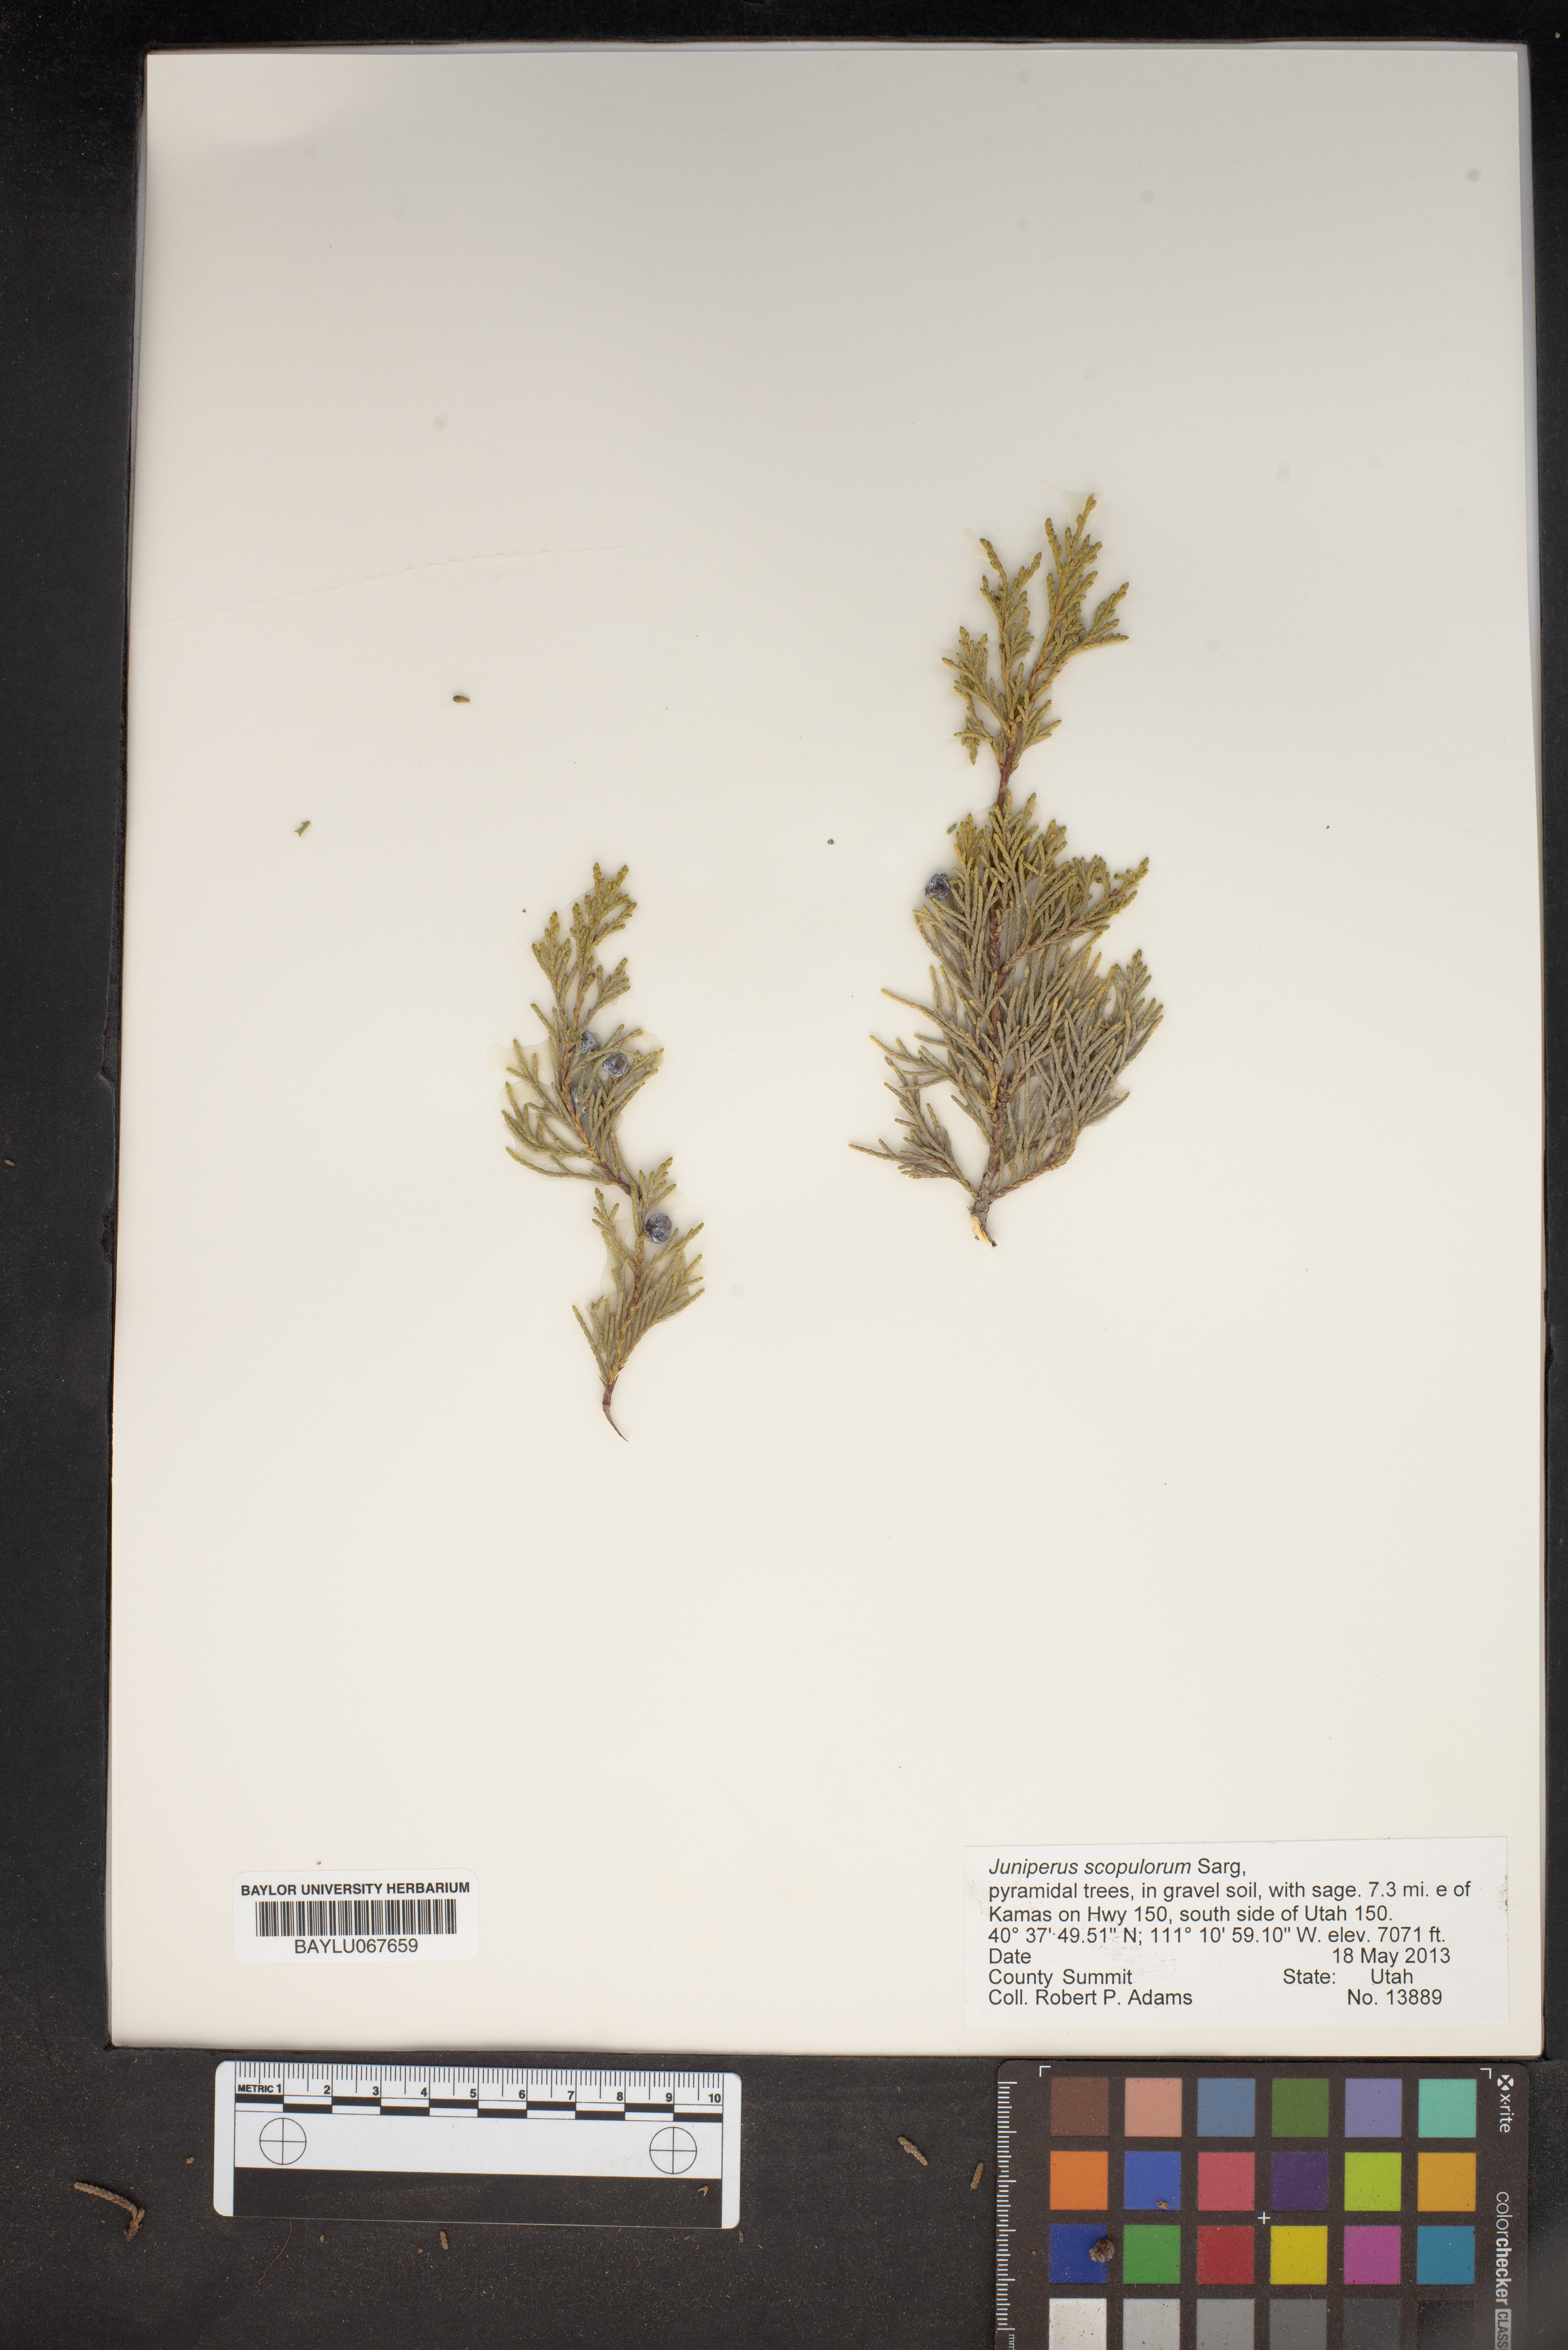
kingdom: Plantae
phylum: Tracheophyta
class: Pinopsida
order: Pinales
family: Cupressaceae
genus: Juniperus
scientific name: Juniperus scopulorum
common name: Rocky mountain juniper
